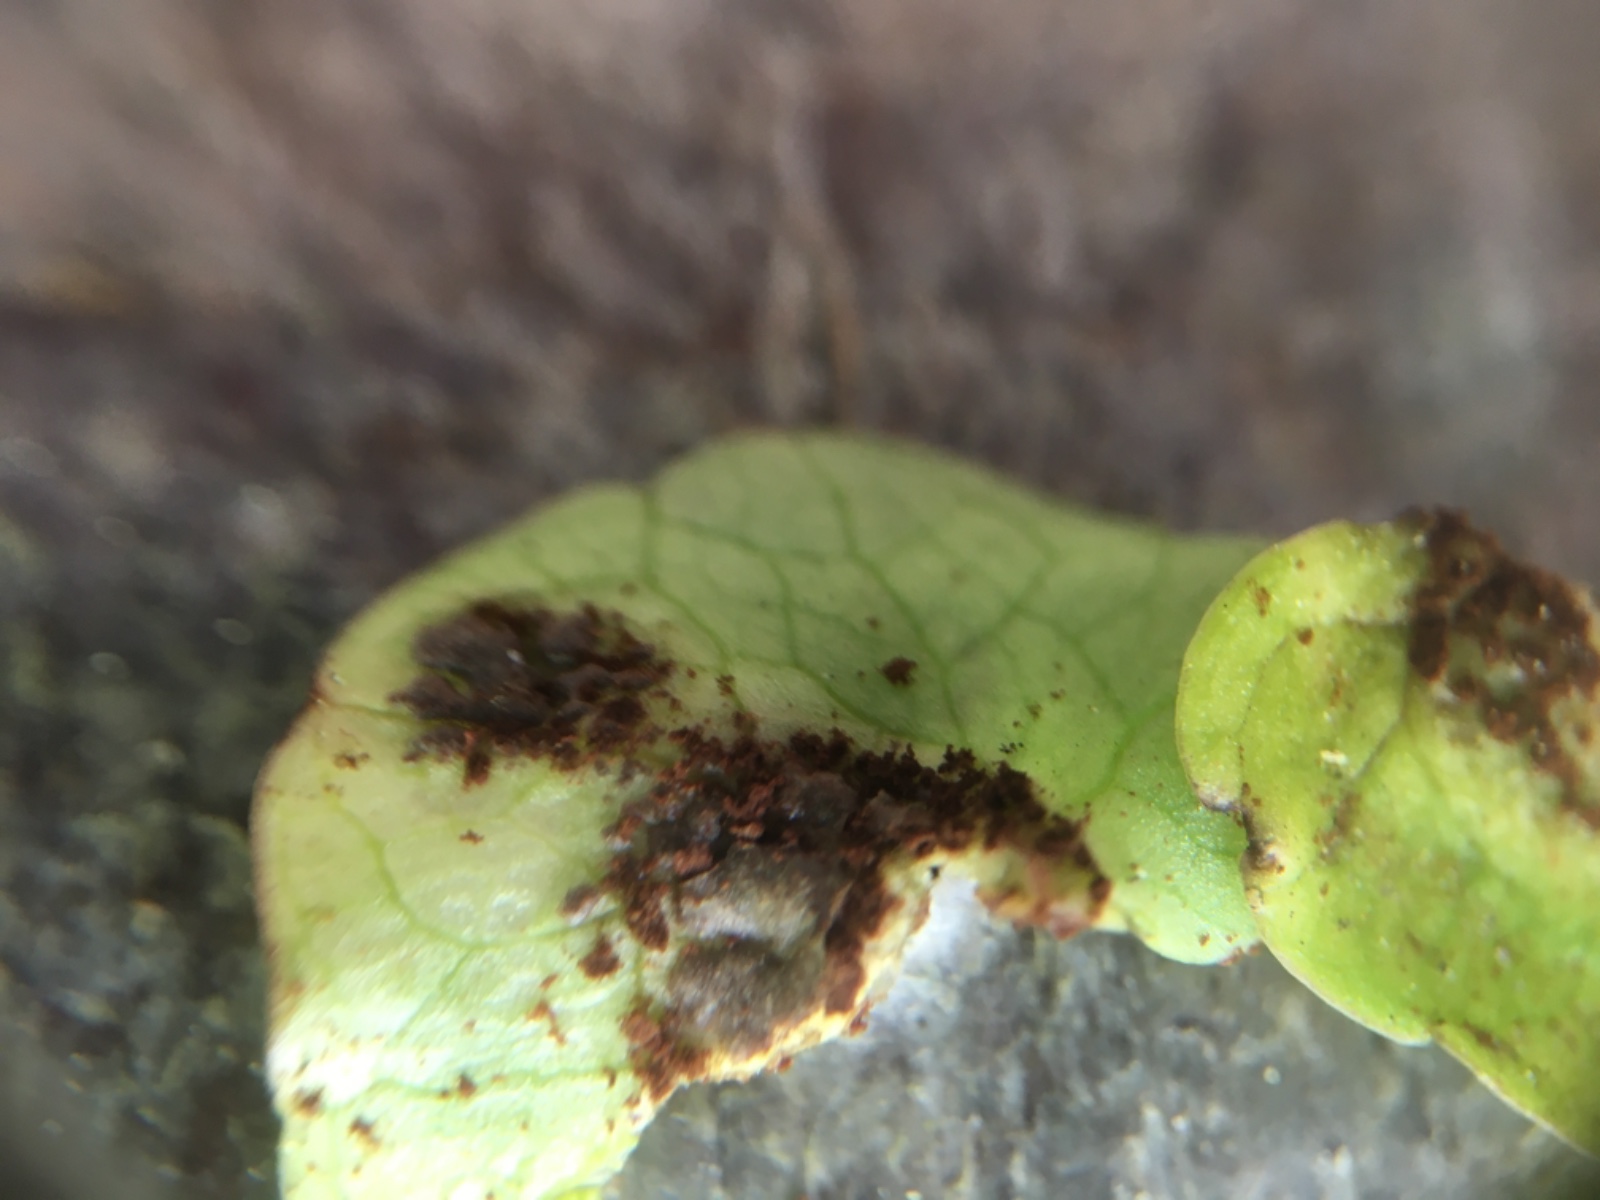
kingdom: Fungi
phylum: Basidiomycota
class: Pucciniomycetes
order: Pucciniales
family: Pucciniaceae
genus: Uromyces
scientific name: Uromyces ficariae
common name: vorterod-encellerust
